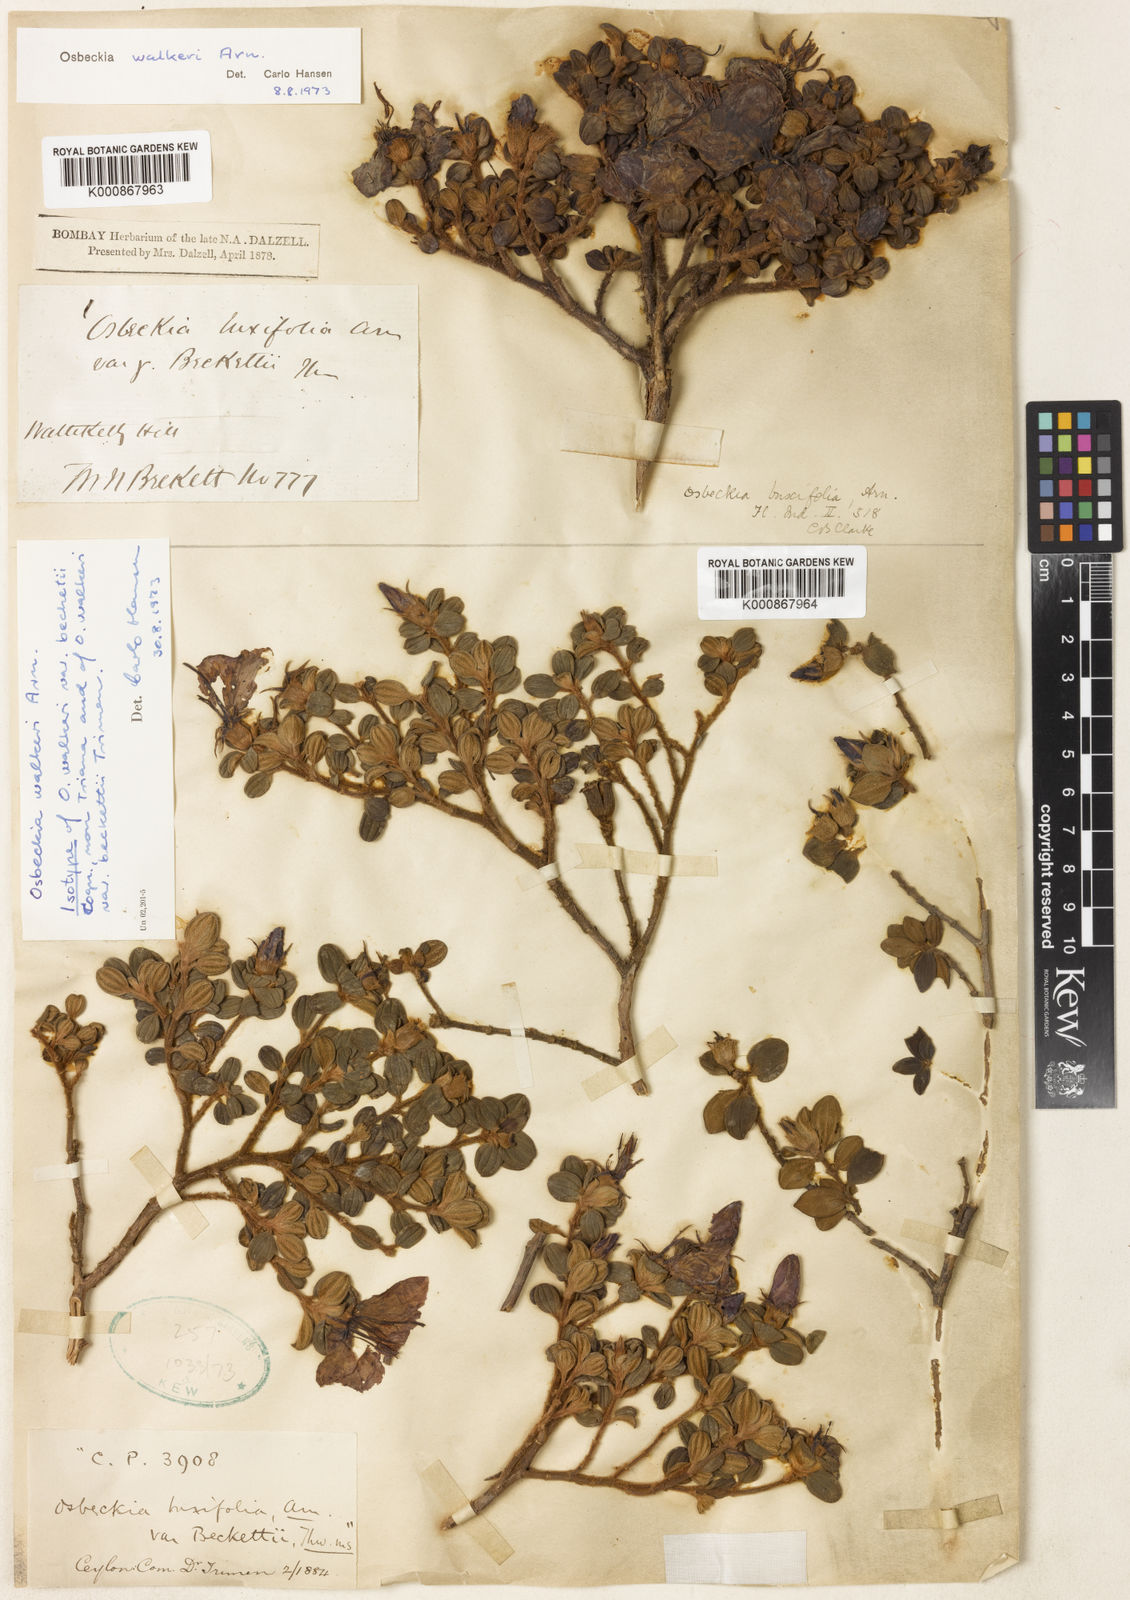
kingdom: Plantae
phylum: Tracheophyta
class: Magnoliopsida
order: Myrtales
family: Melastomataceae
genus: Osbeckia
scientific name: Osbeckia walkeri
